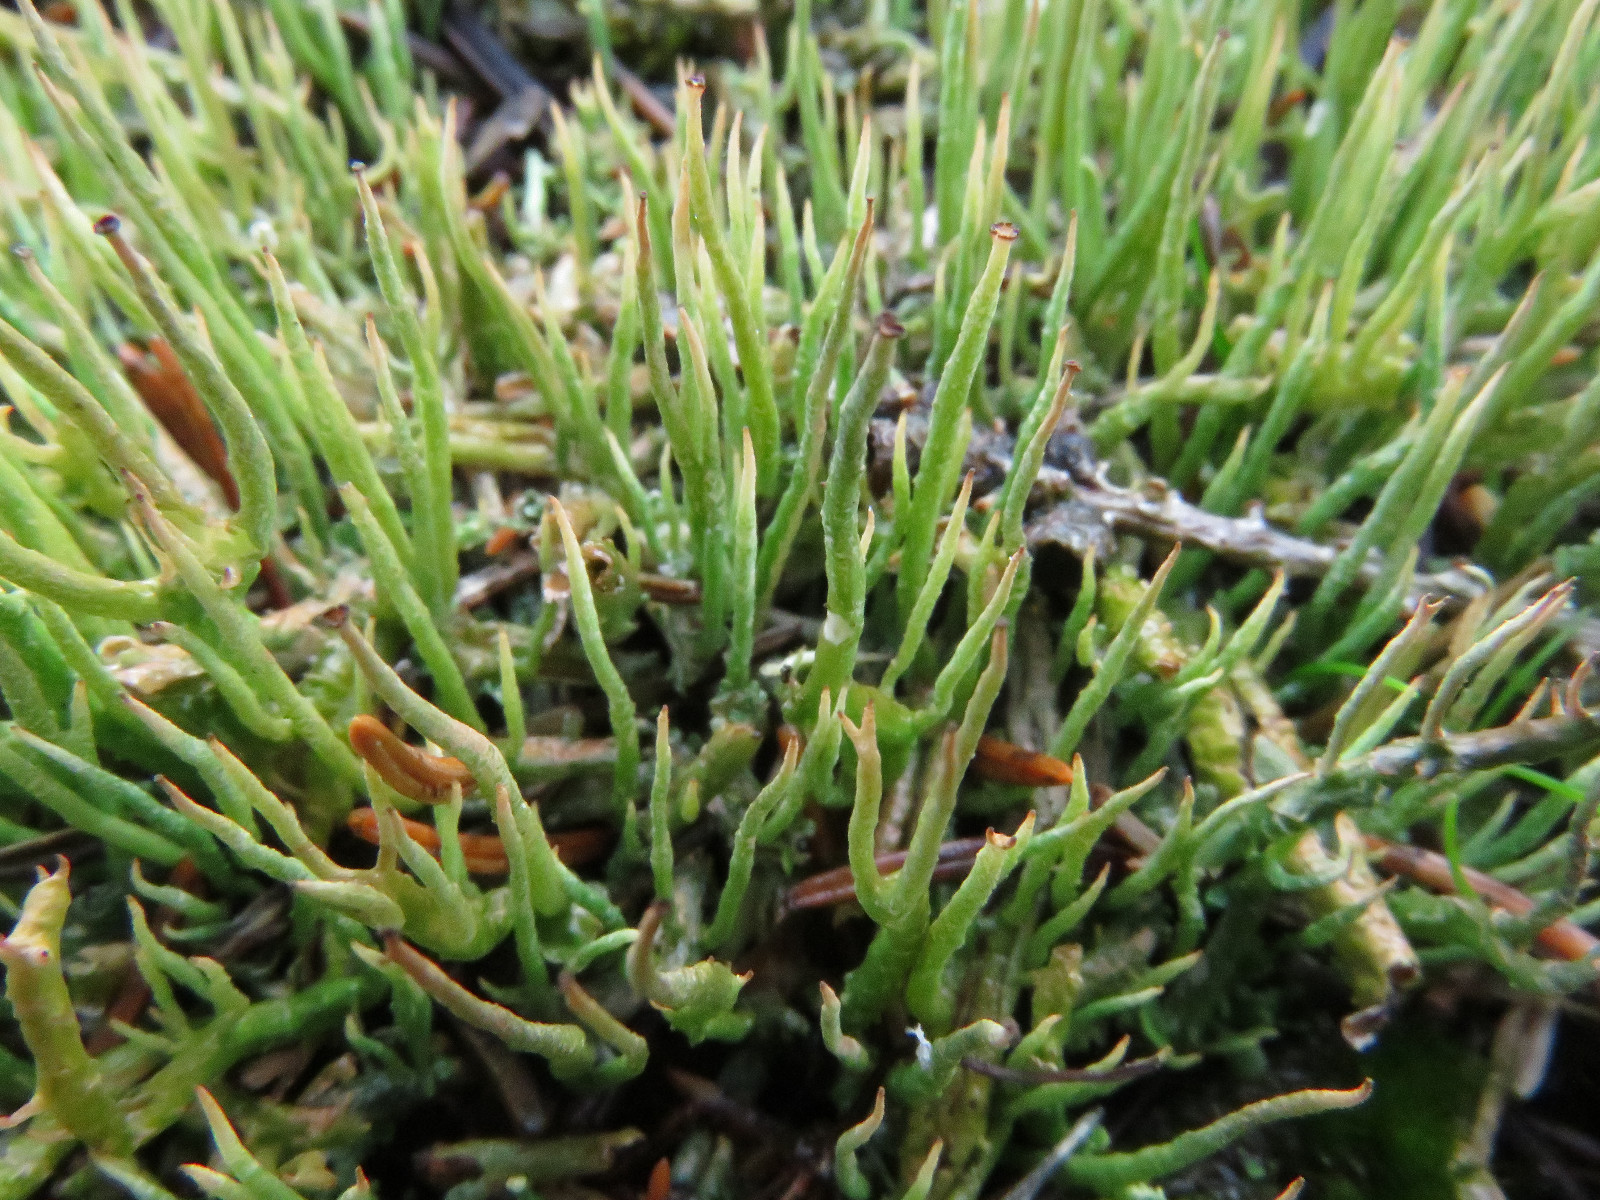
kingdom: Fungi
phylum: Ascomycota
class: Lecanoromycetes
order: Lecanorales
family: Cladoniaceae
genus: Cladonia
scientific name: Cladonia gracilis
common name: slank bægerlav
